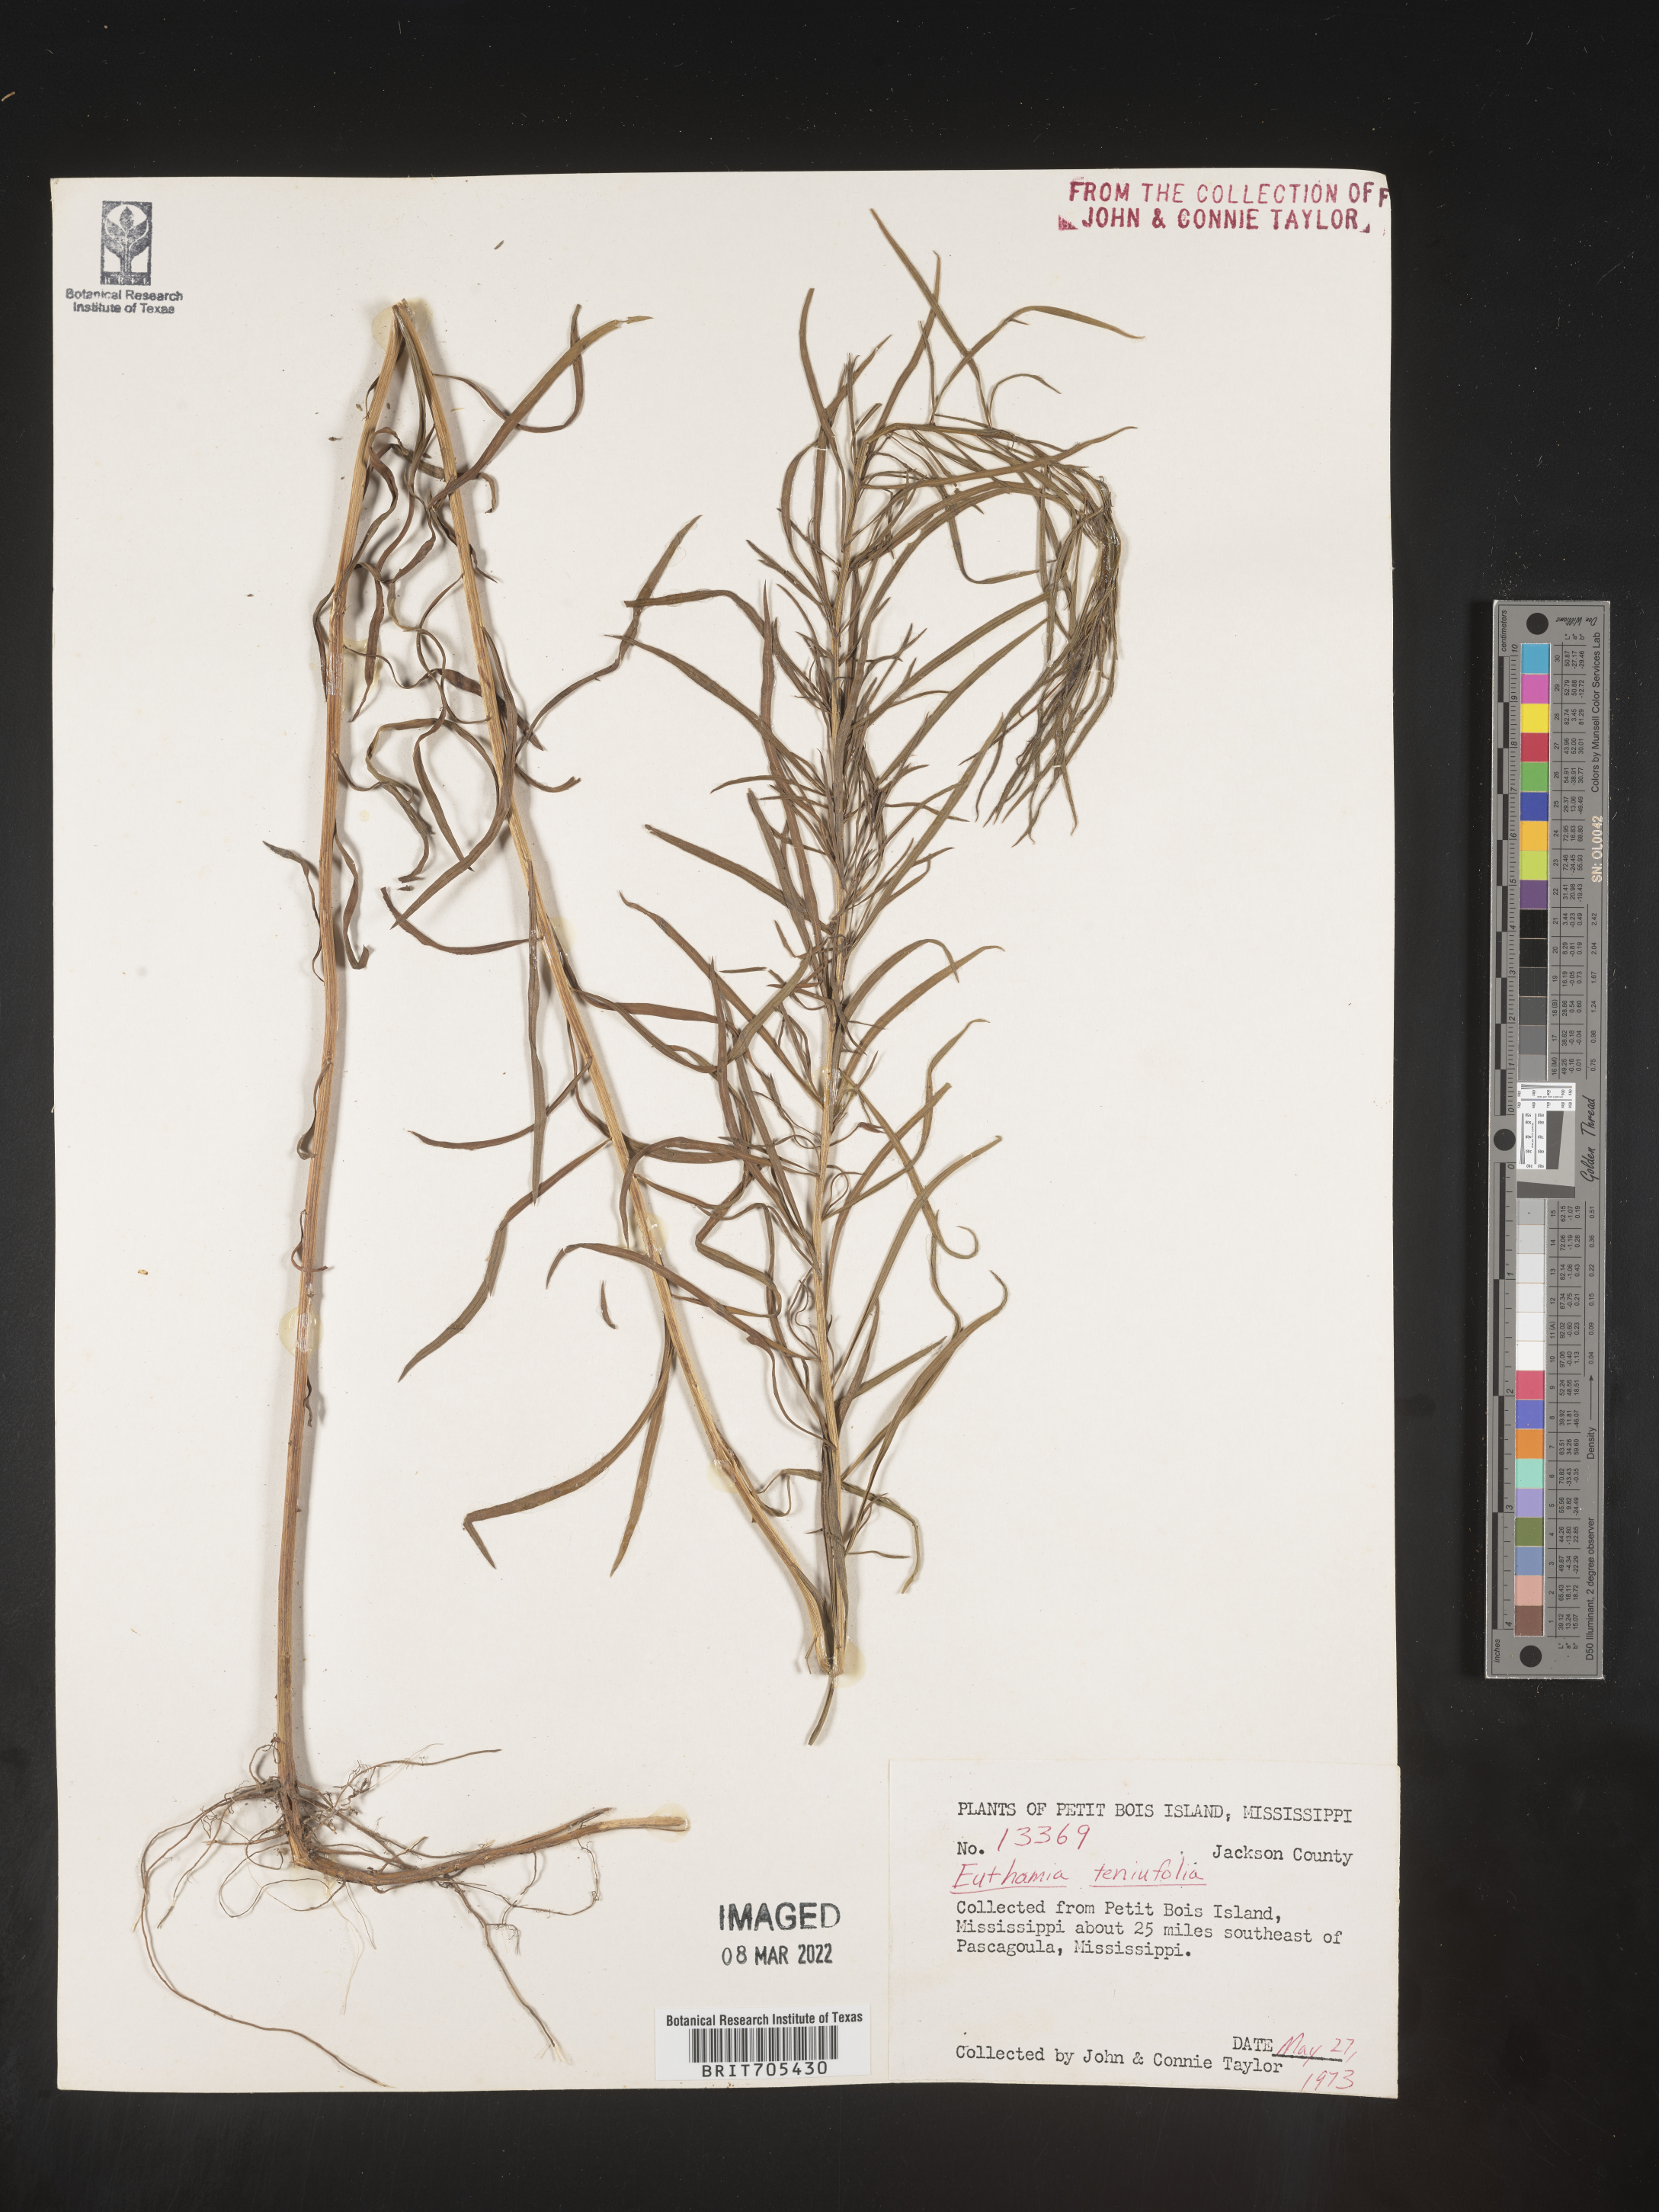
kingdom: Plantae
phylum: Tracheophyta
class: Magnoliopsida
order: Asterales
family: Asteraceae
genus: Euthamia
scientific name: Euthamia
